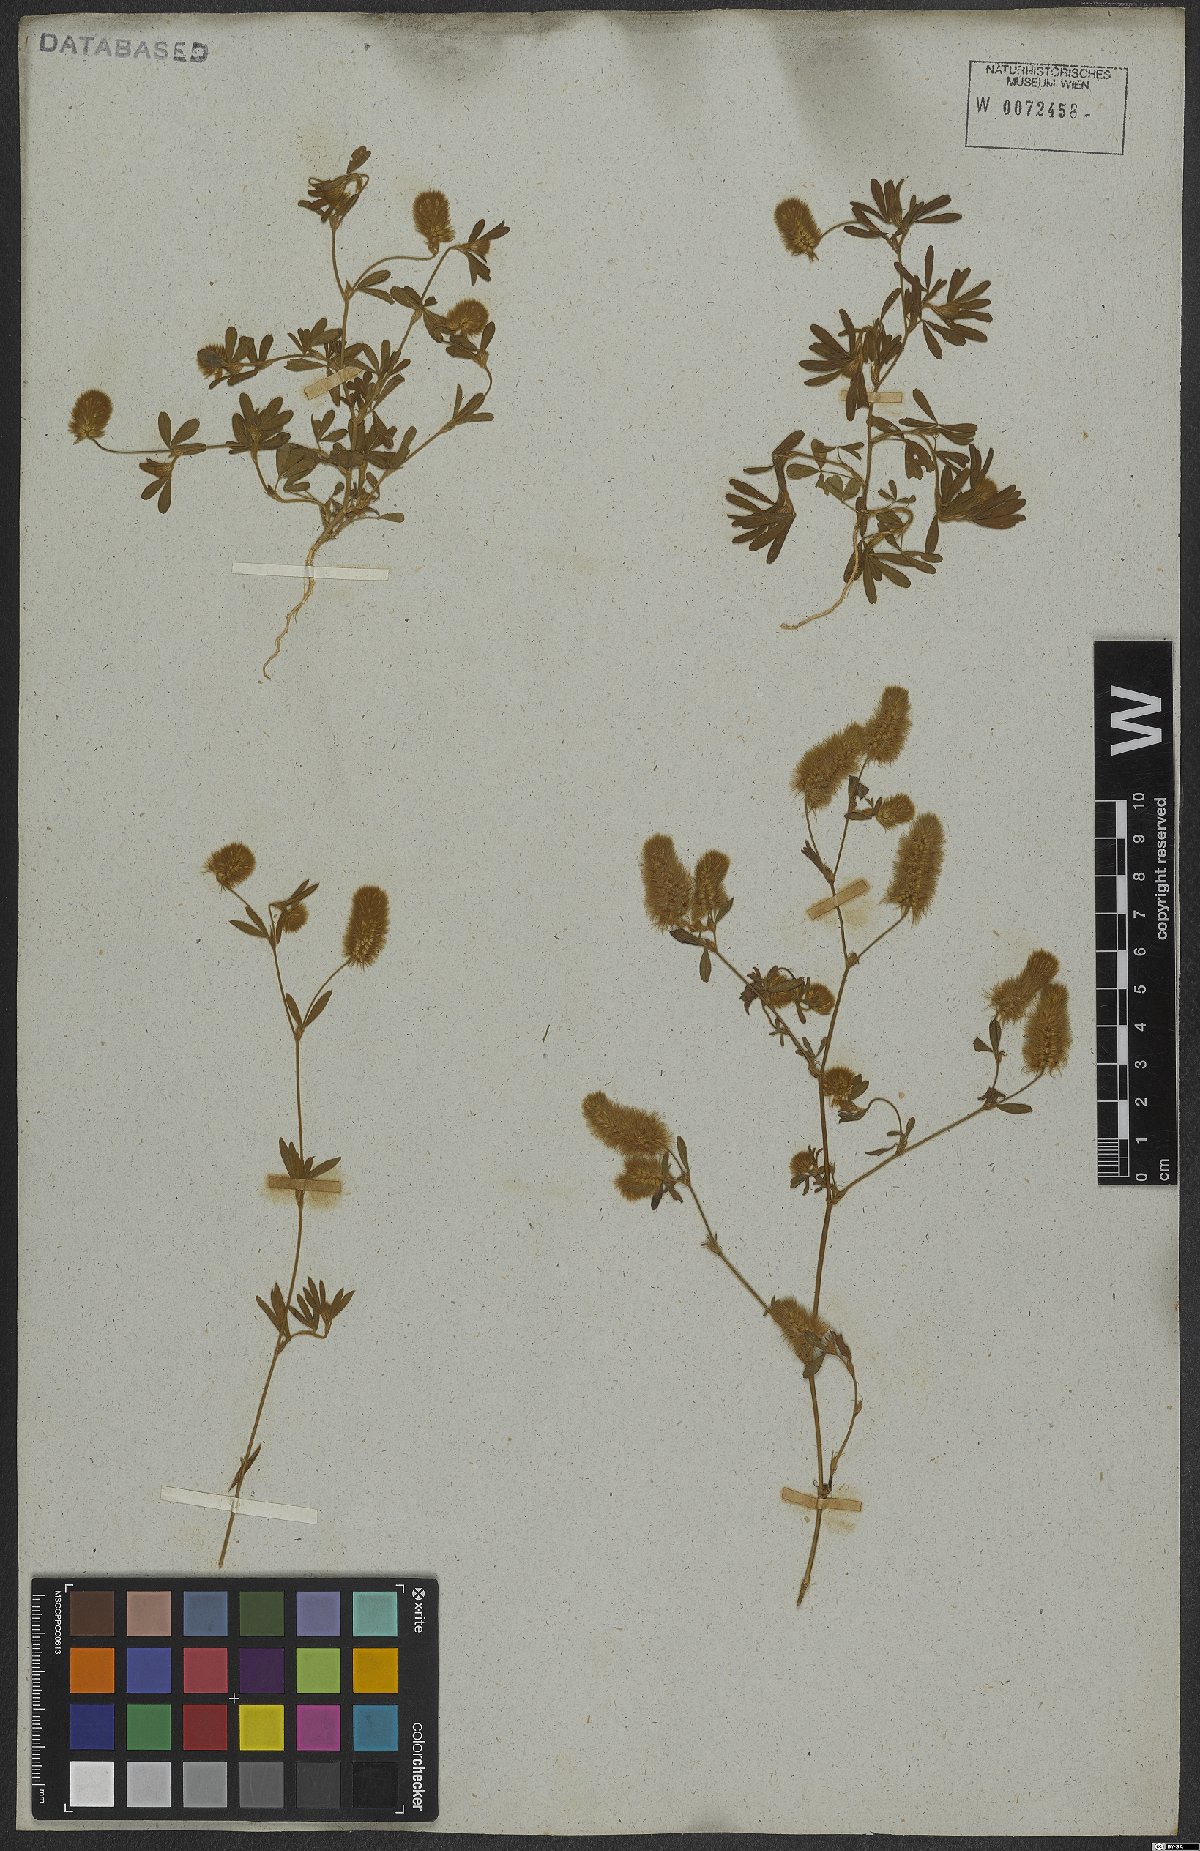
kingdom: Plantae
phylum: Tracheophyta
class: Magnoliopsida
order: Fabales
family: Fabaceae
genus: Trifolium
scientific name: Trifolium arvense
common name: Hare's-foot clover
